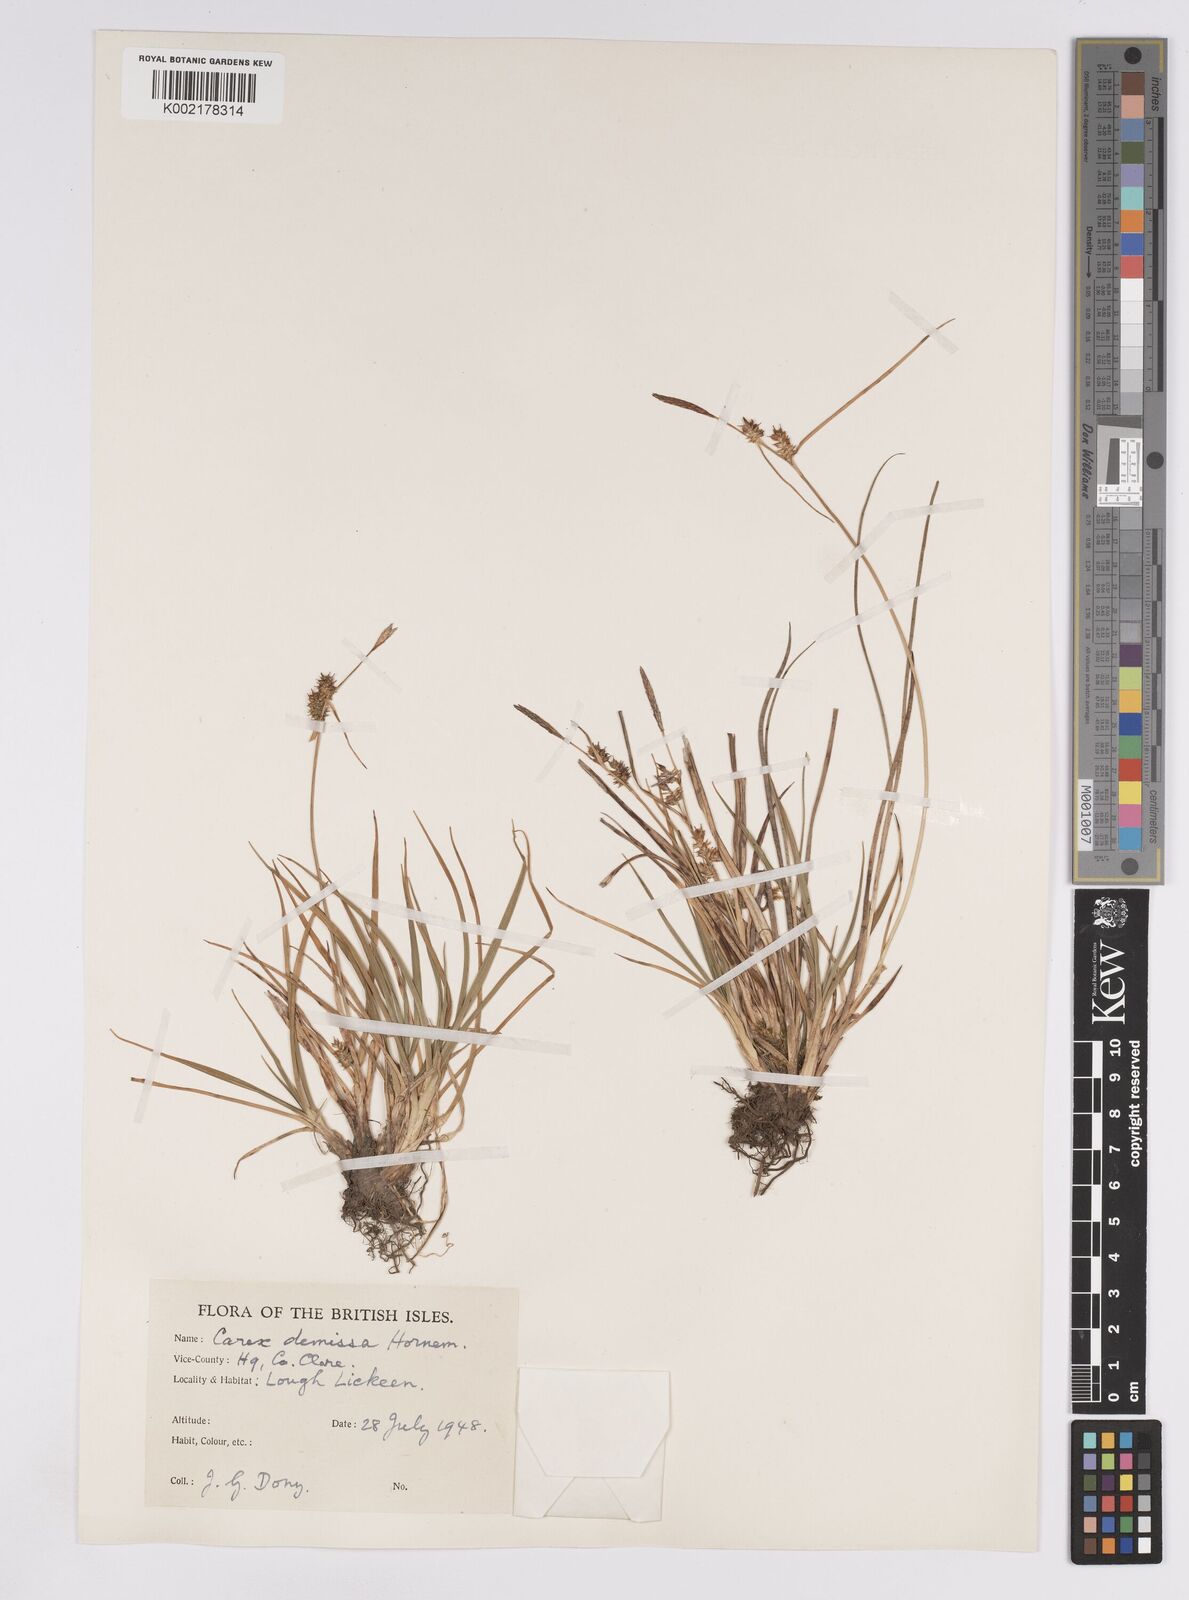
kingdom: Plantae
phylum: Tracheophyta
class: Liliopsida
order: Poales
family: Cyperaceae
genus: Carex
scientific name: Carex demissa
